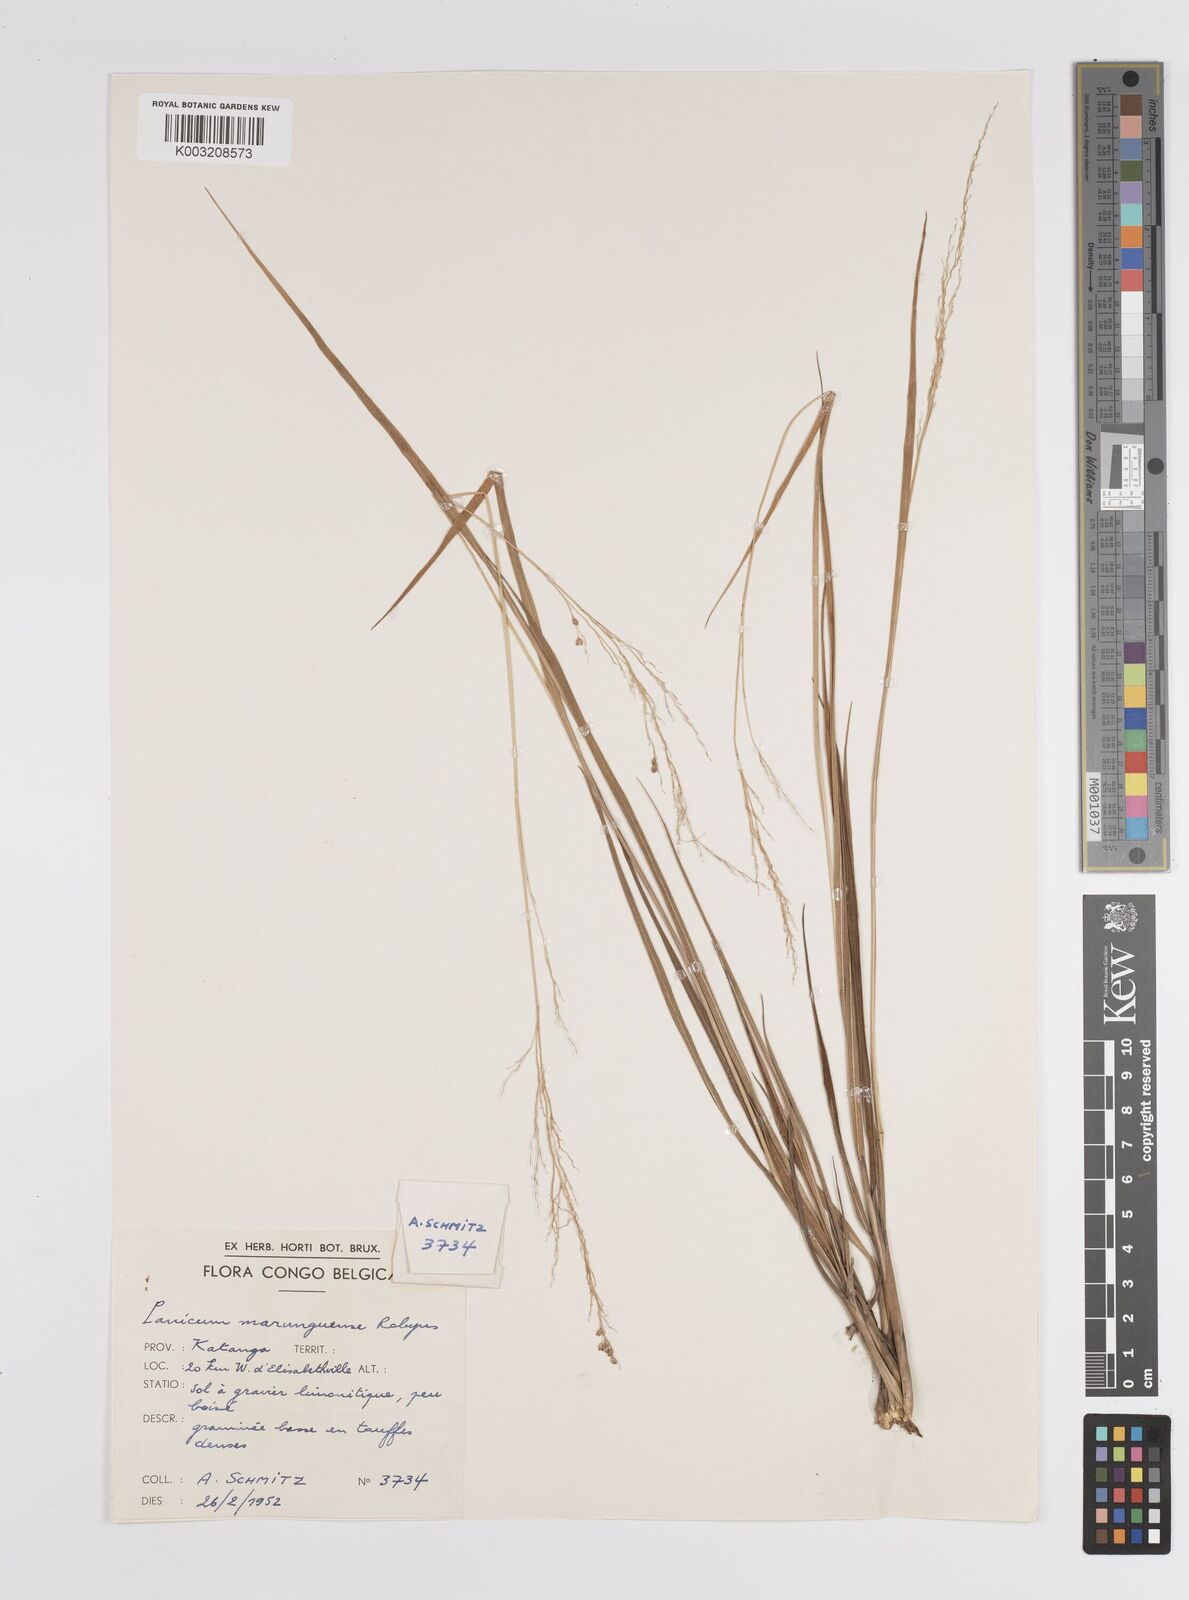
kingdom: Plantae
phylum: Tracheophyta
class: Liliopsida
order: Poales
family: Poaceae
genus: Trichanthecium
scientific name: Trichanthecium margaritiferum
